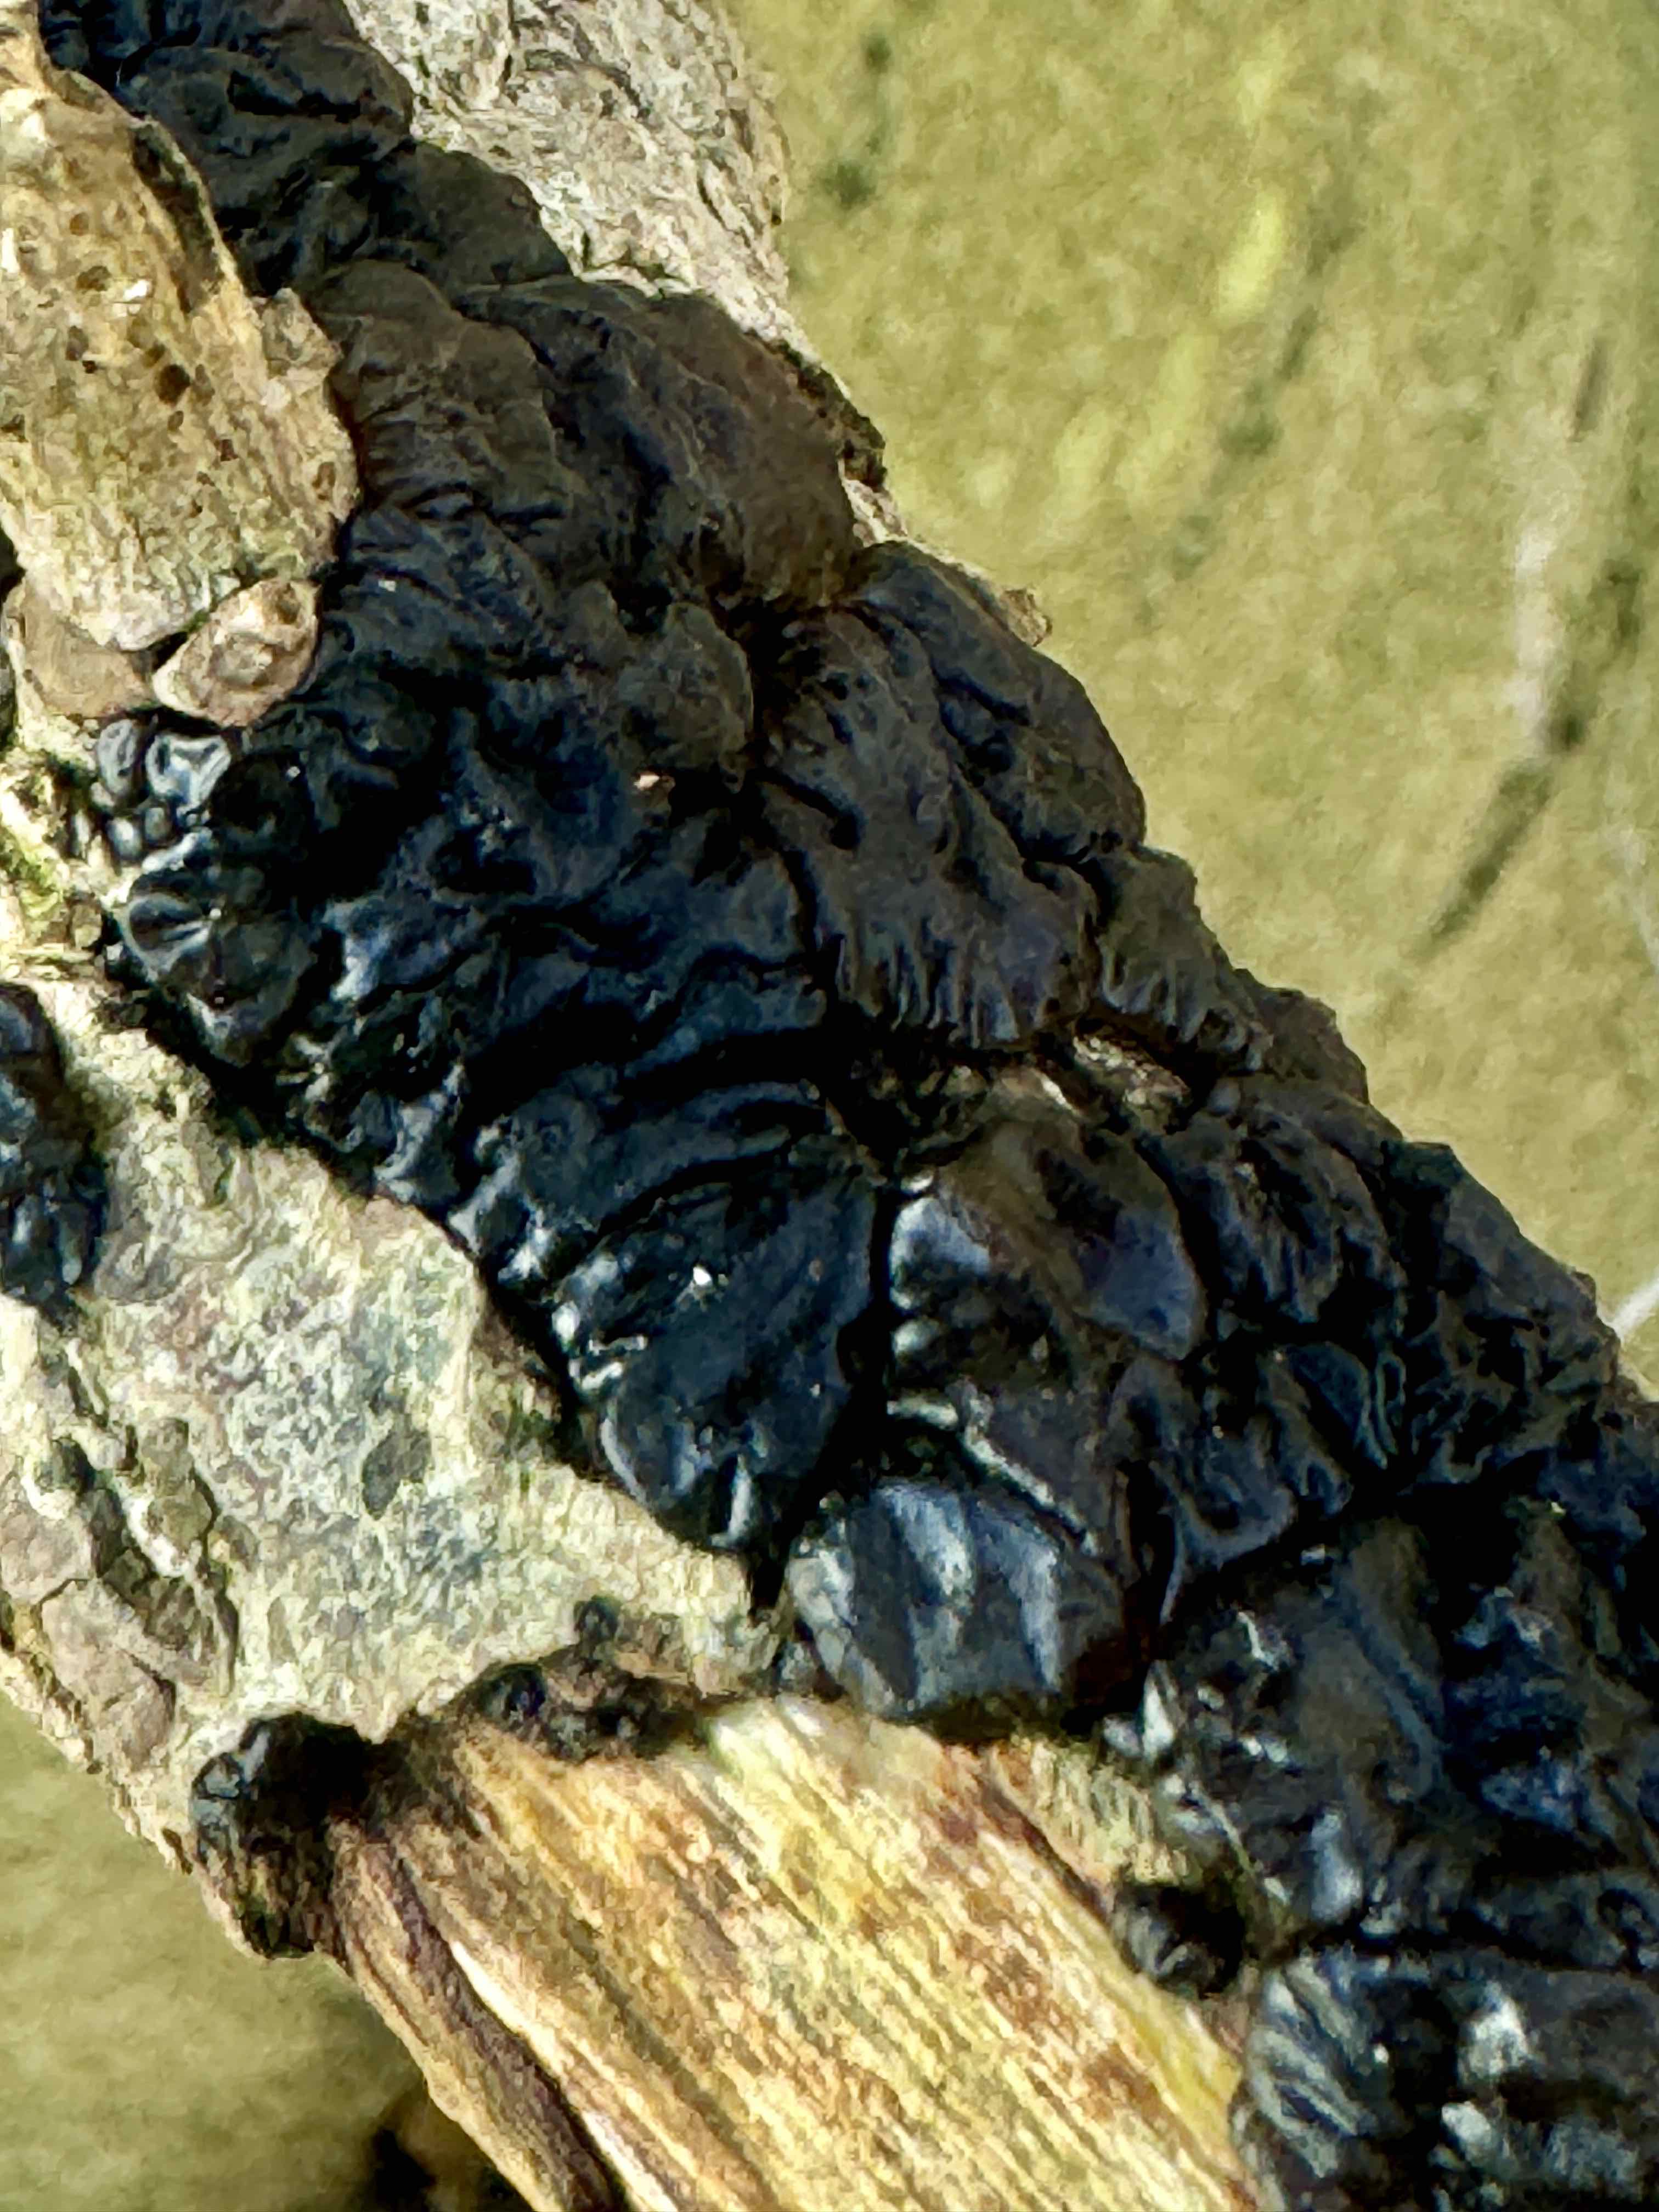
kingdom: Fungi
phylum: Basidiomycota
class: Agaricomycetes
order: Auriculariales
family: Auriculariaceae
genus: Exidia
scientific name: Exidia nigricans
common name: almindelig bævretop
